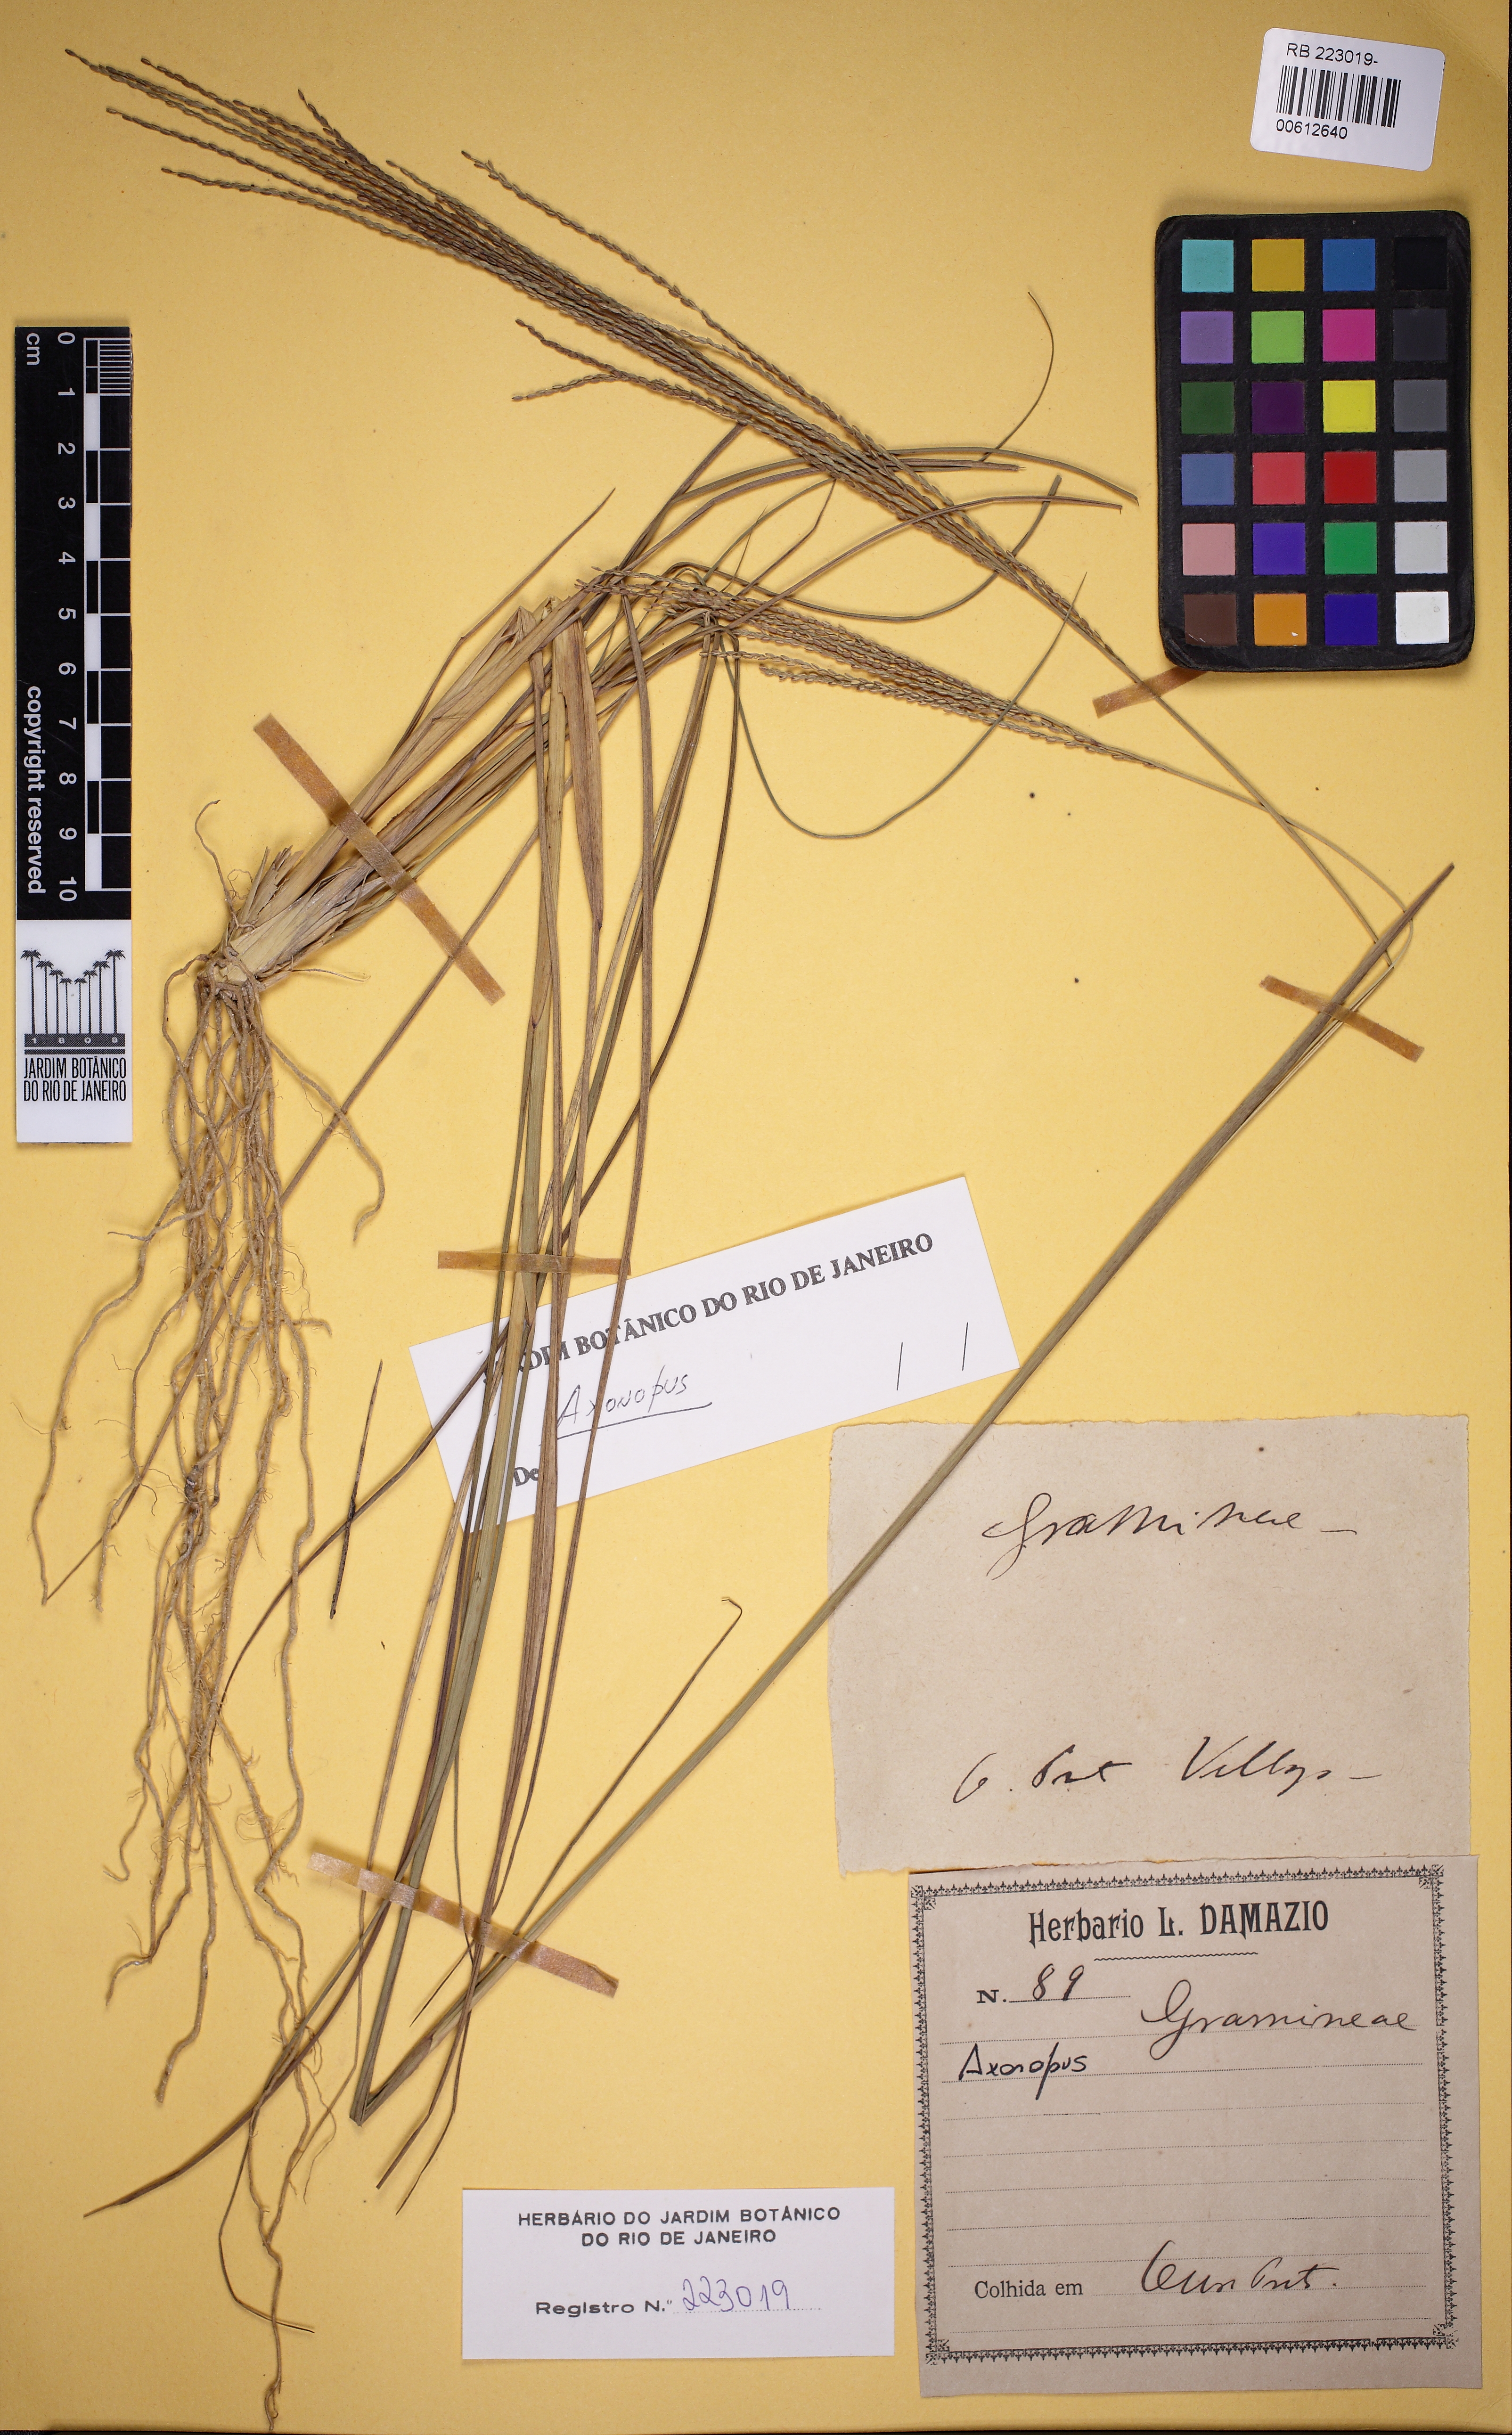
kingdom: Plantae
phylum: Tracheophyta
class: Liliopsida
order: Poales
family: Poaceae
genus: Axonopus
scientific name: Axonopus
